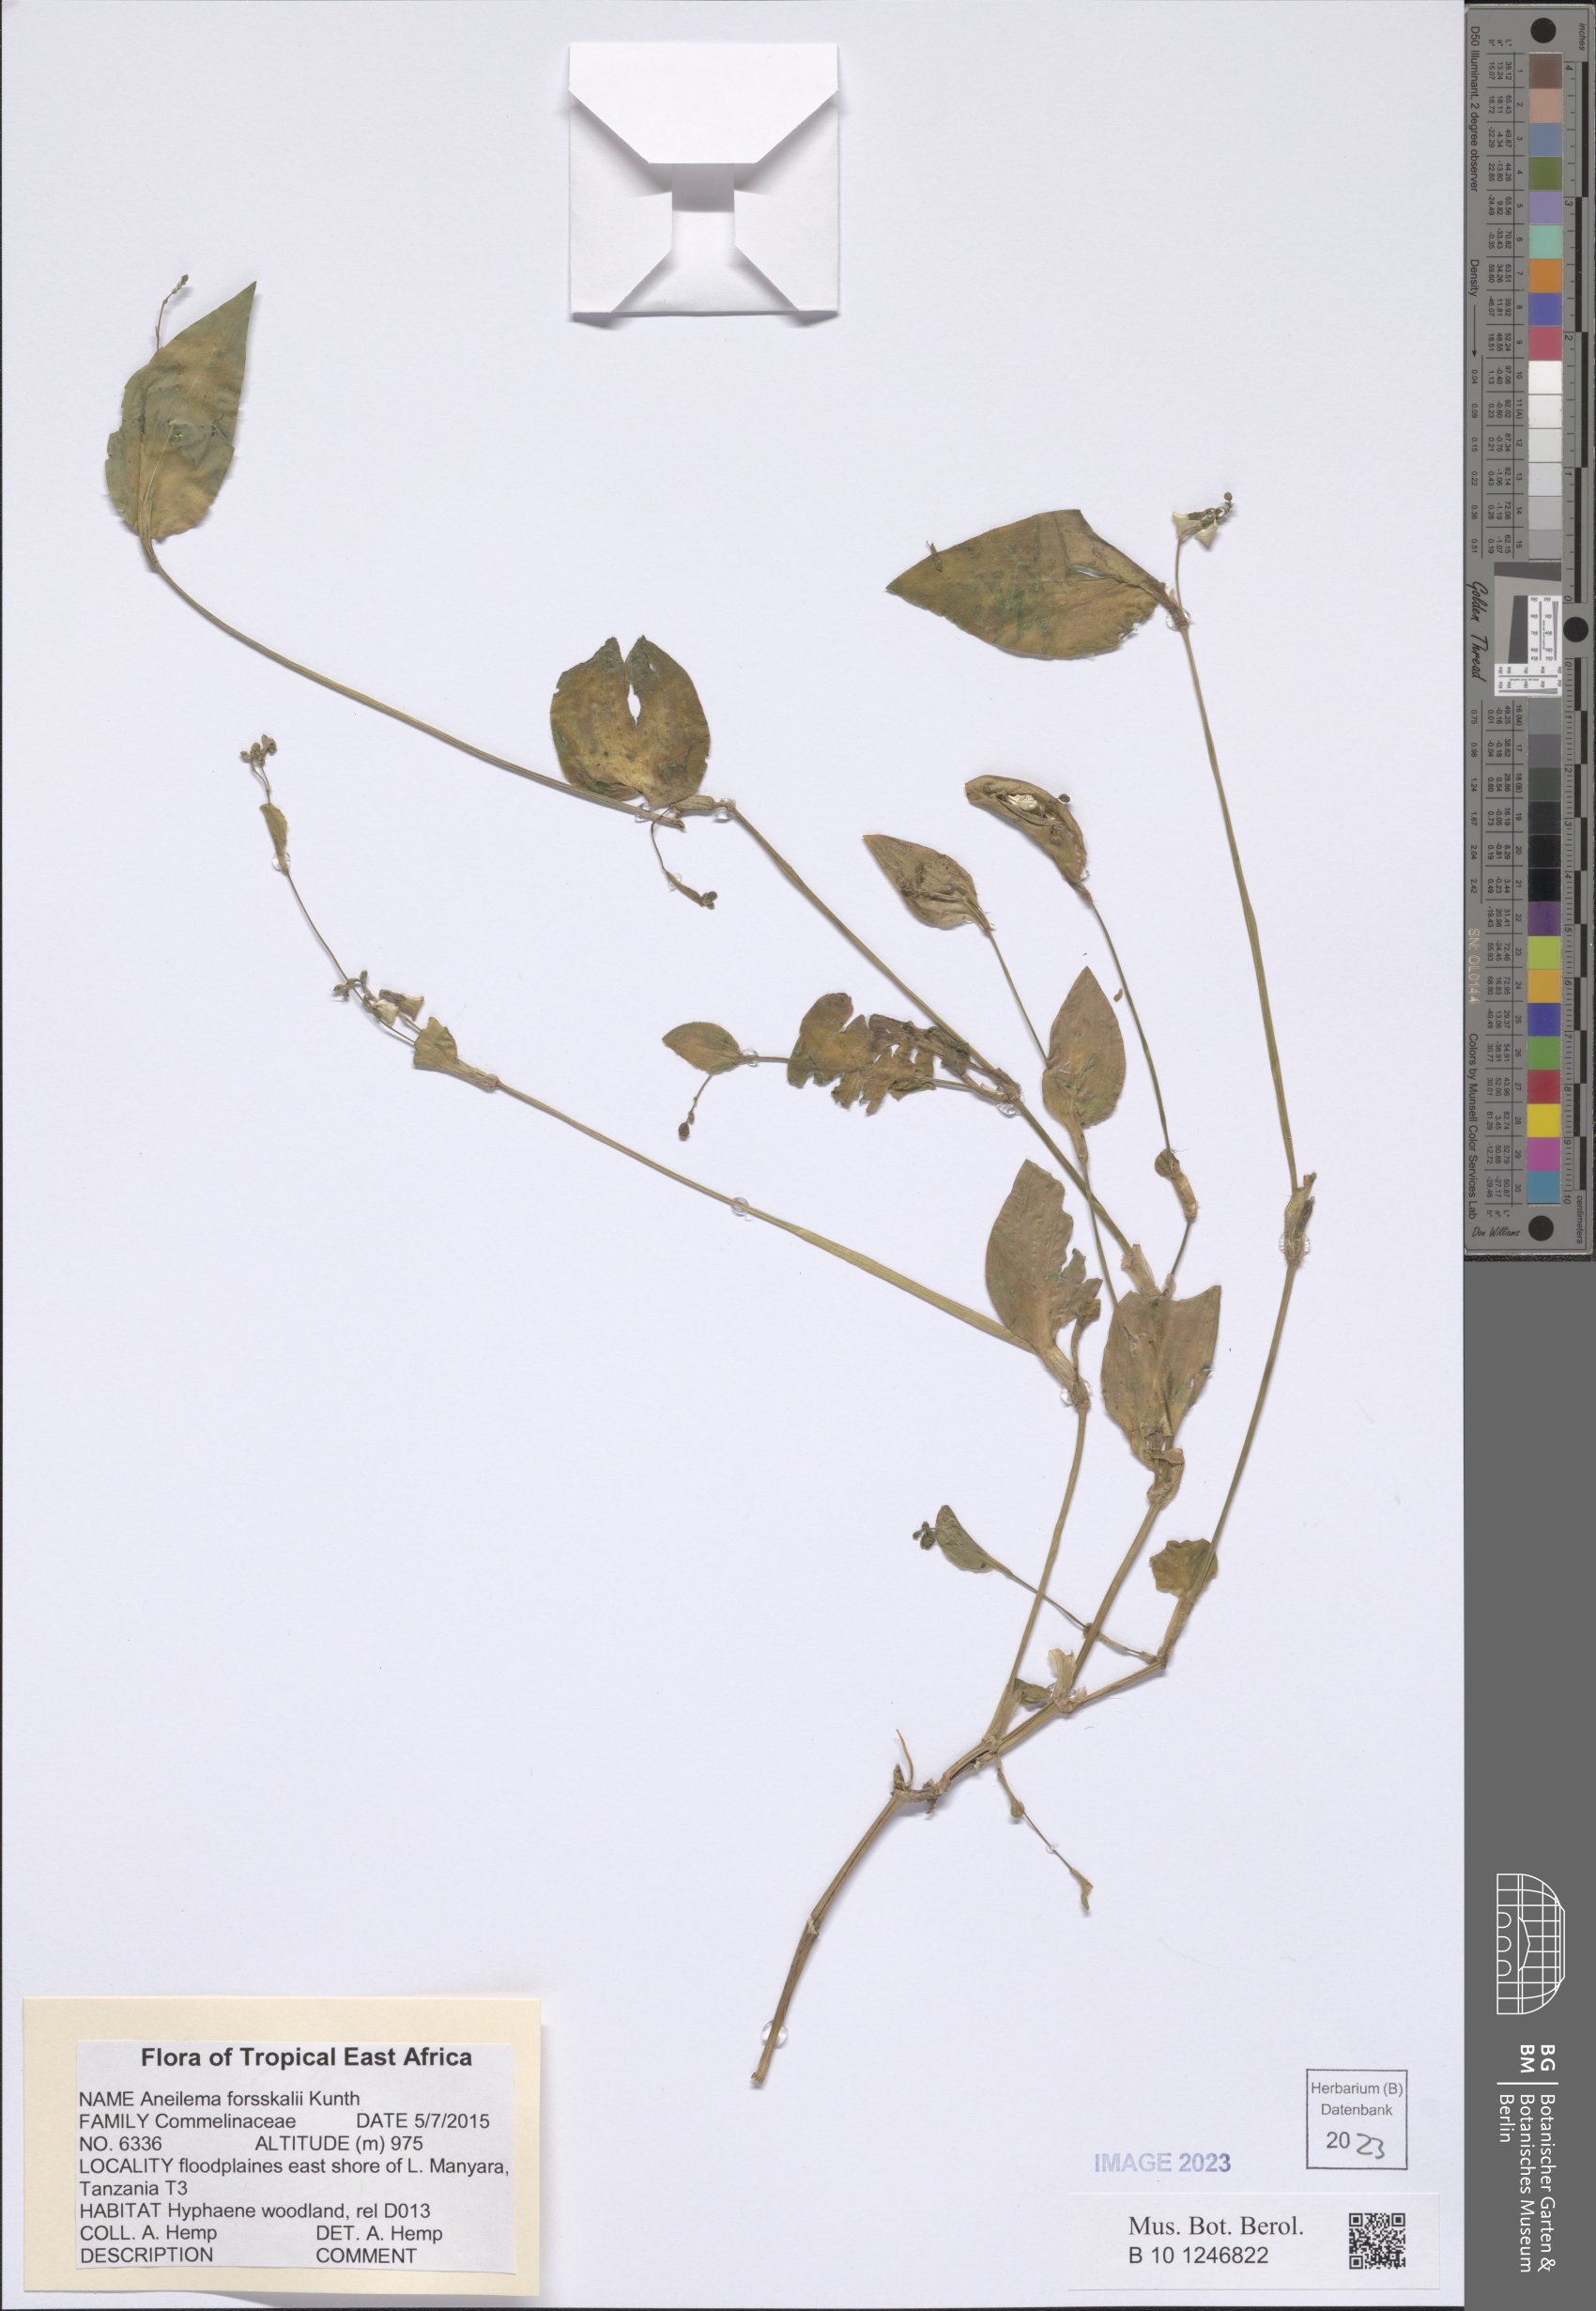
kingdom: Plantae
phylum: Tracheophyta
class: Liliopsida
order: Commelinales
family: Commelinaceae
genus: Aneilema
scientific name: Aneilema forskalii
